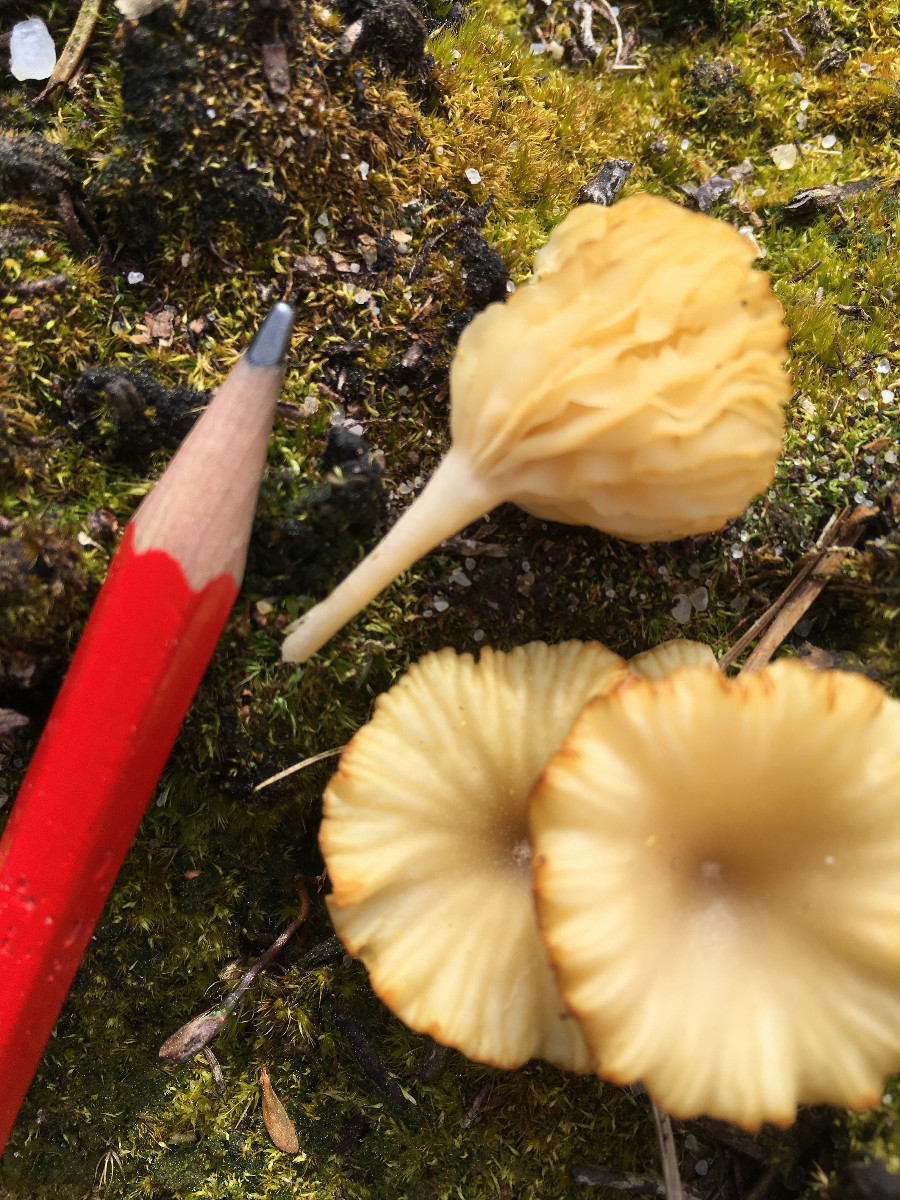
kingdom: Fungi
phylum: Basidiomycota
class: Agaricomycetes
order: Agaricales
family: Hygrophoraceae
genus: Lichenomphalia
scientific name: Lichenomphalia umbellifera
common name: tørve-lavhat
